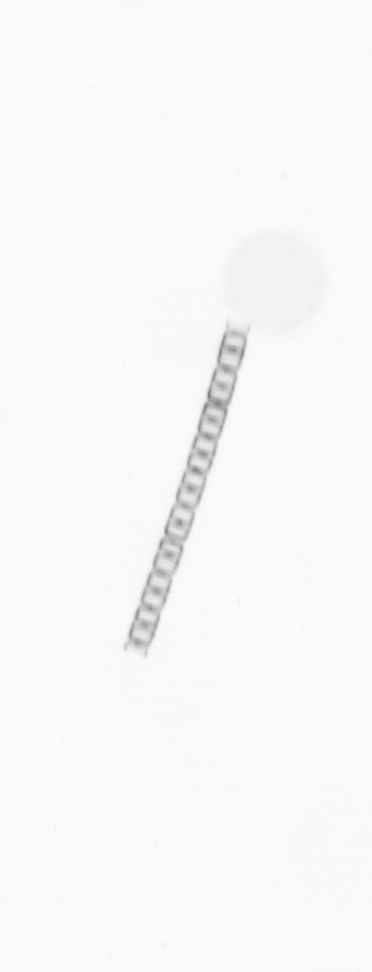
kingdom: Chromista
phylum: Ochrophyta
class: Bacillariophyceae
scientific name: Bacillariophyceae
